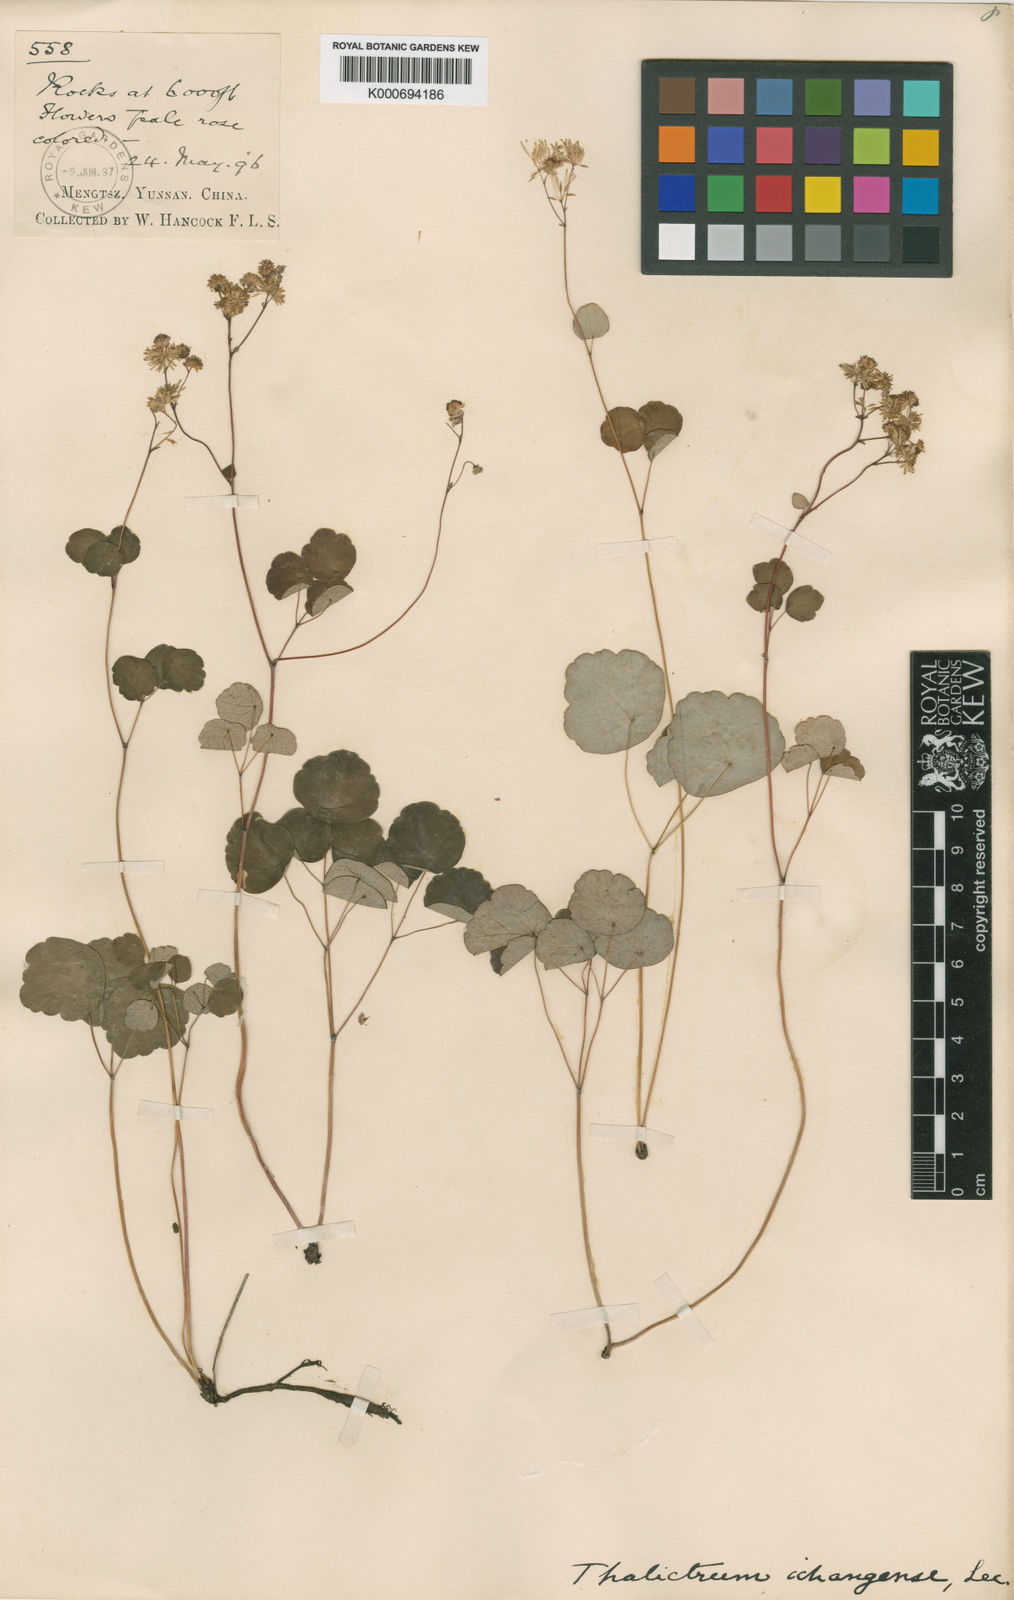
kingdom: Plantae
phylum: Tracheophyta
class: Magnoliopsida
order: Ranunculales
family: Ranunculaceae
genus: Thalictrum
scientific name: Thalictrum
